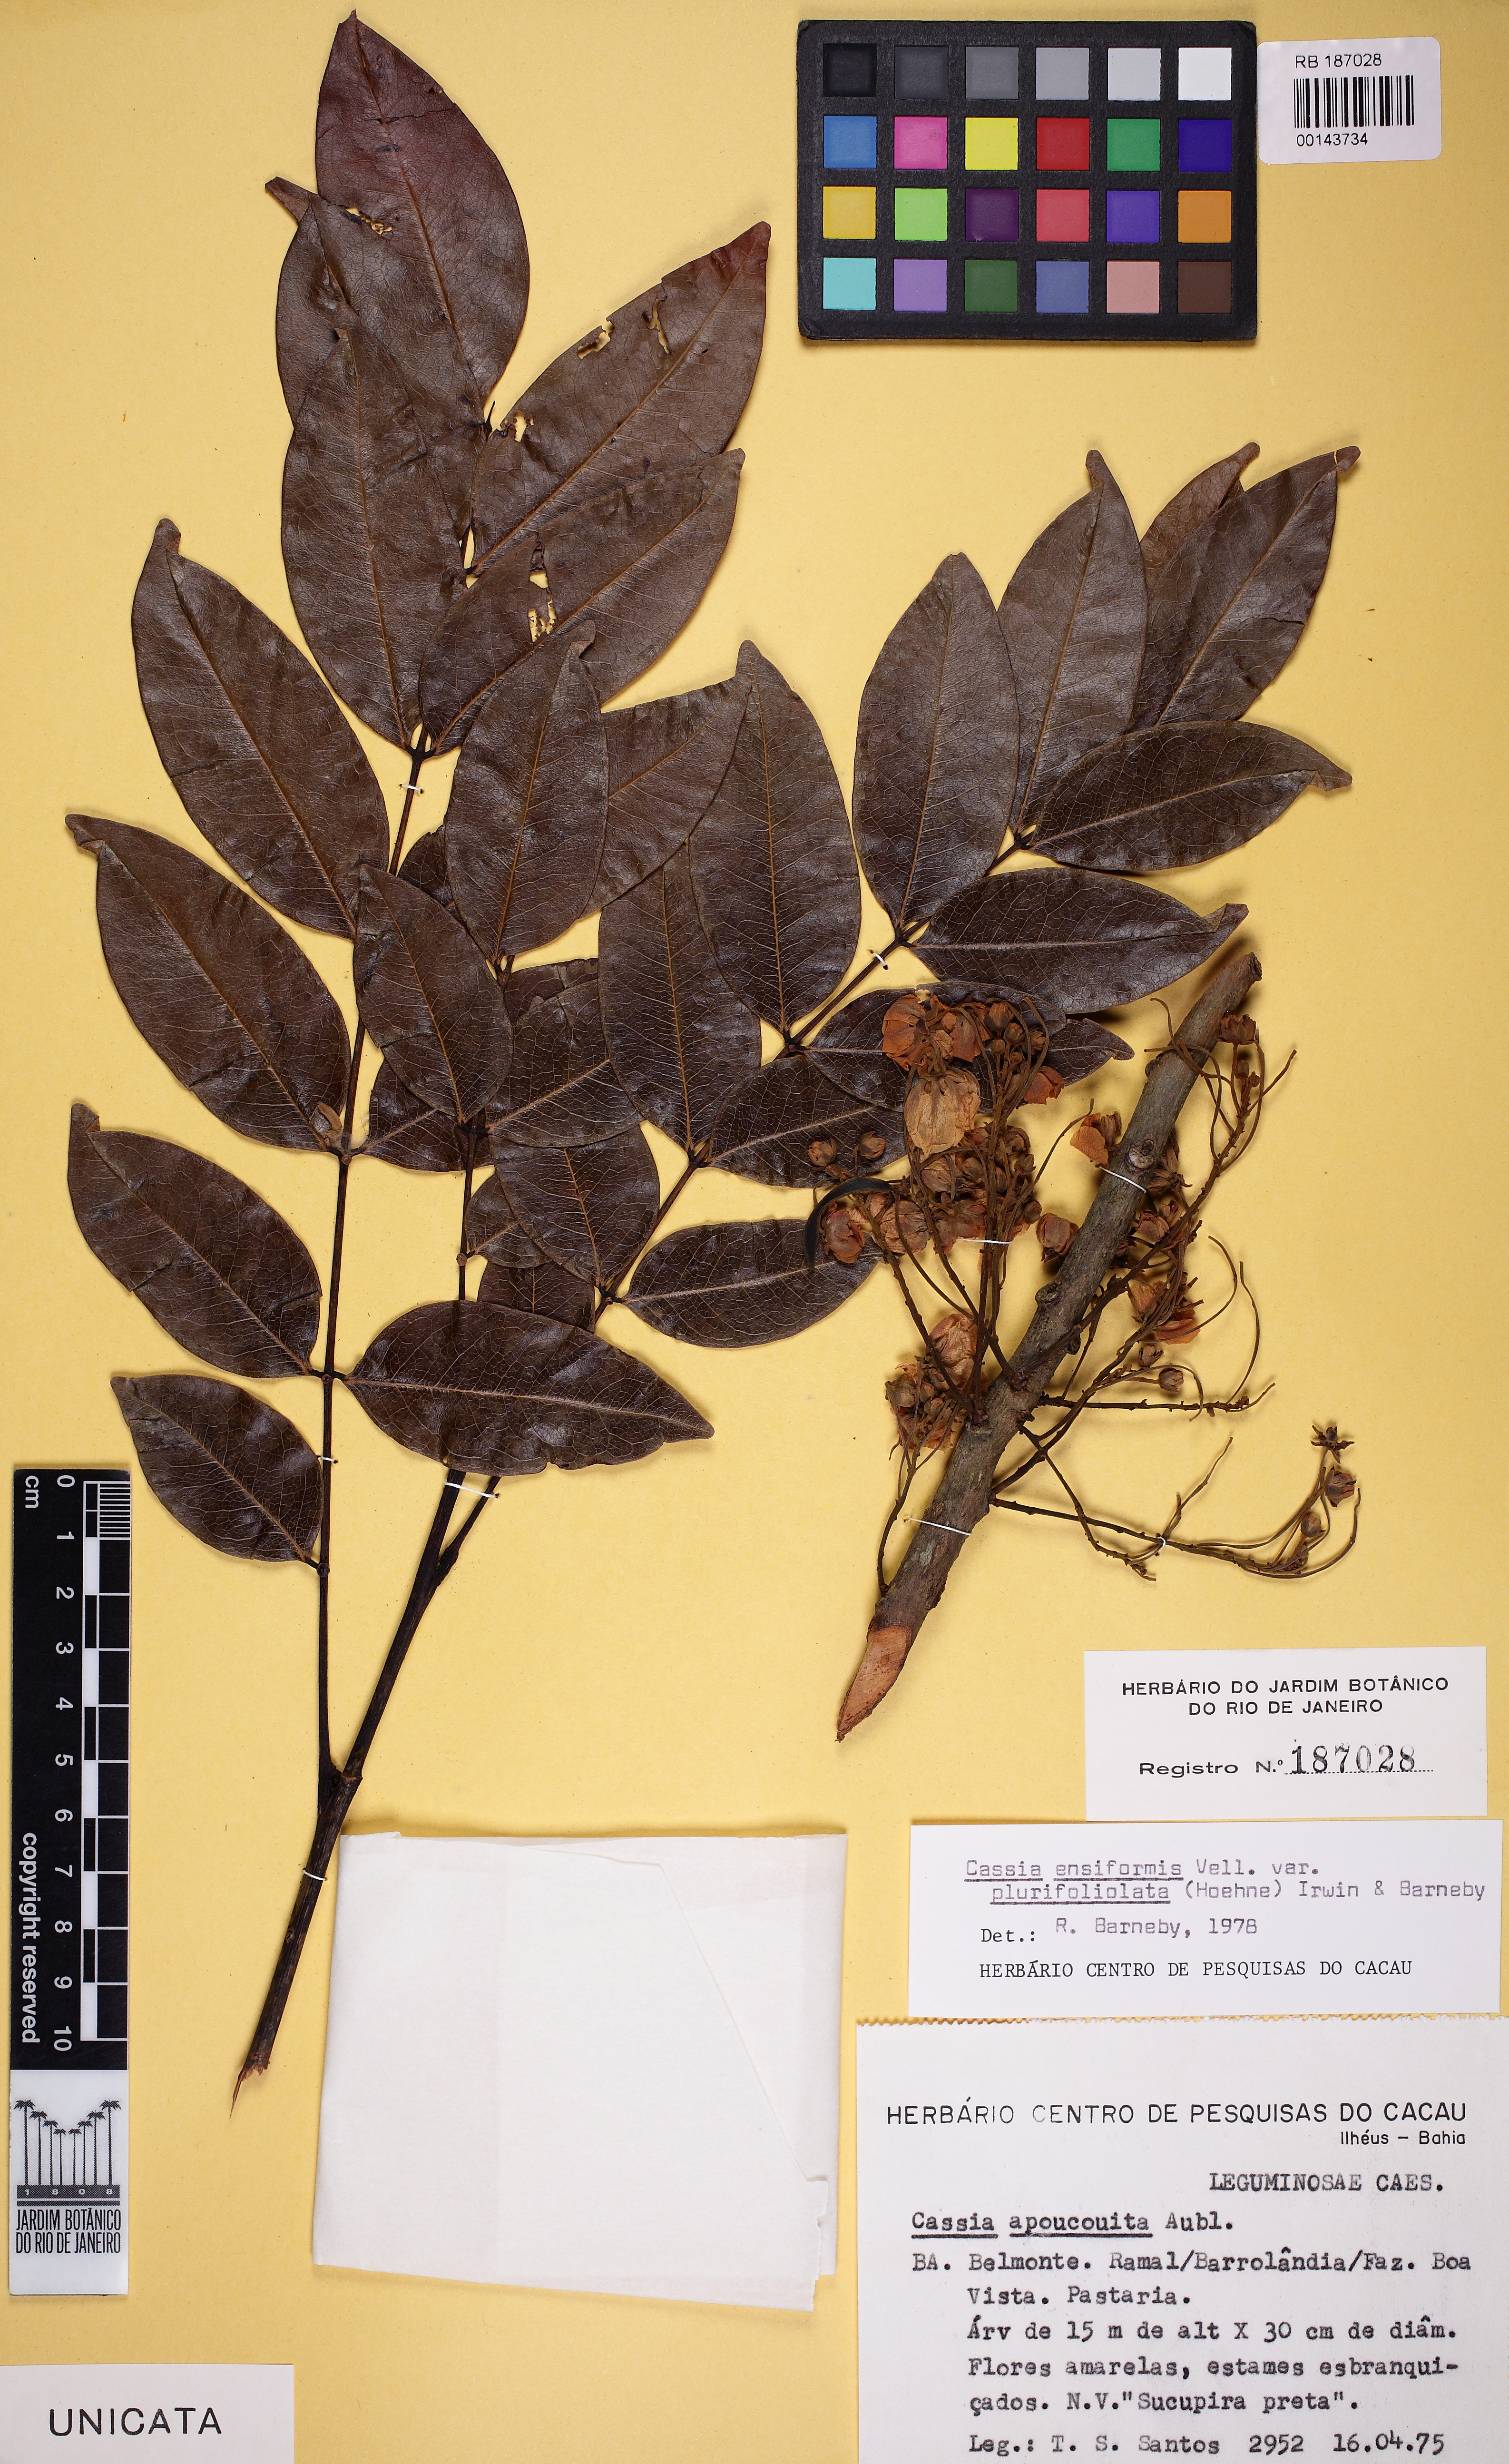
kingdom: Plantae
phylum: Tracheophyta
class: Magnoliopsida
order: Fabales
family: Fabaceae
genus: Chamaecrista
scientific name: Chamaecrista ensiformis
